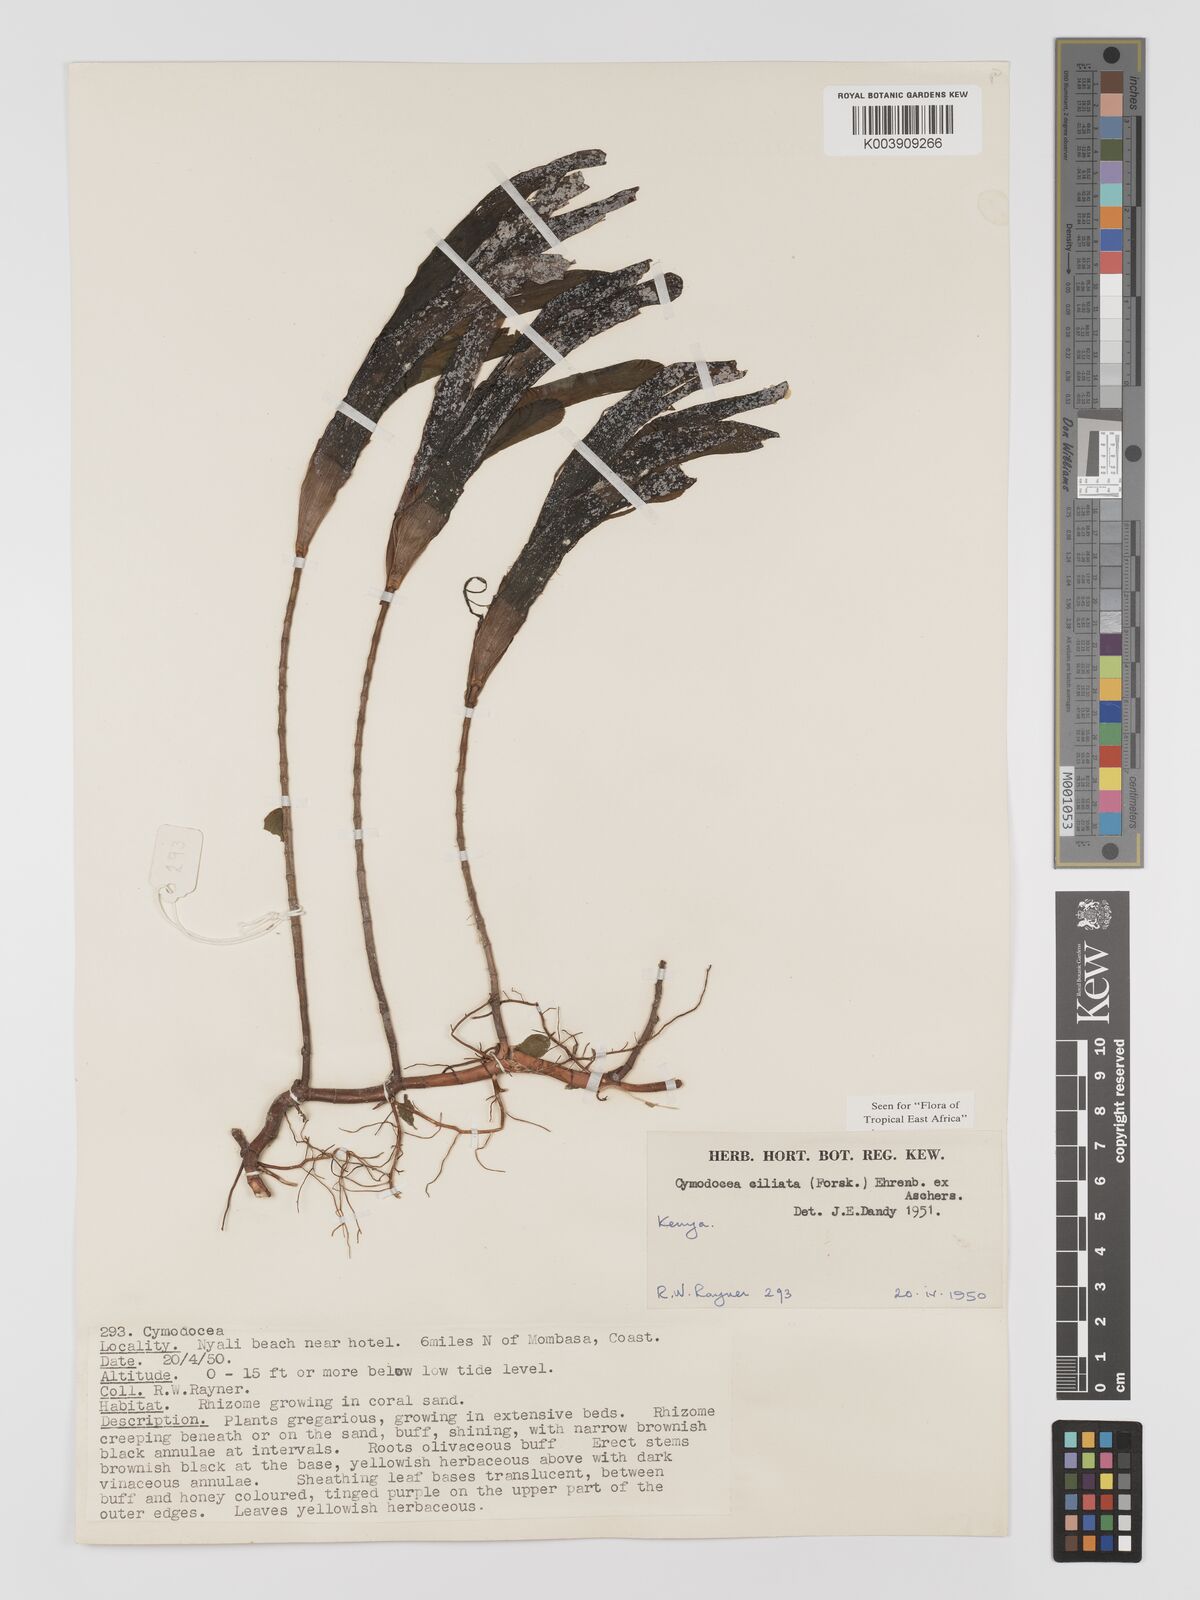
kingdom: Plantae
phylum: Tracheophyta
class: Liliopsida
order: Alismatales
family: Cymodoceaceae
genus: Thalassodendron
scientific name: Thalassodendron ciliatum
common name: Species code: tc
